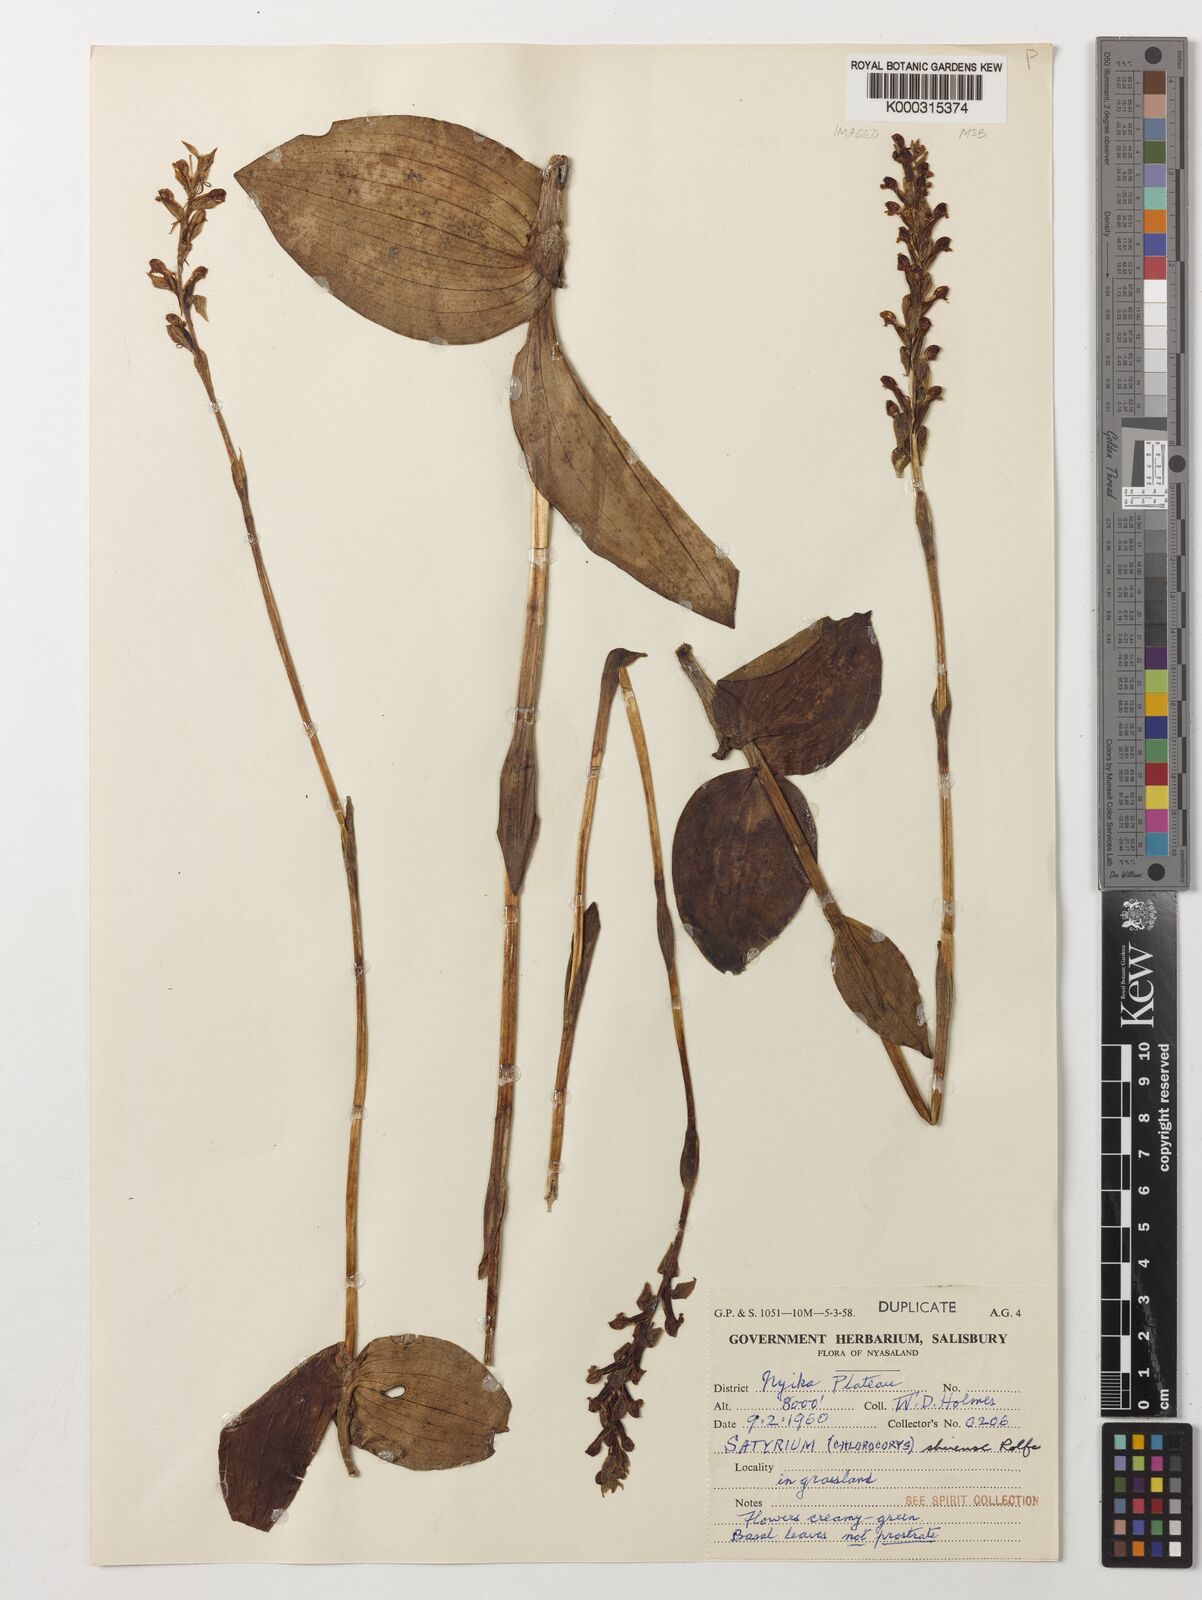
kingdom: Plantae
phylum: Tracheophyta
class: Liliopsida
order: Asparagales
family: Orchidaceae
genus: Satyrium
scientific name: Satyrium shirense
